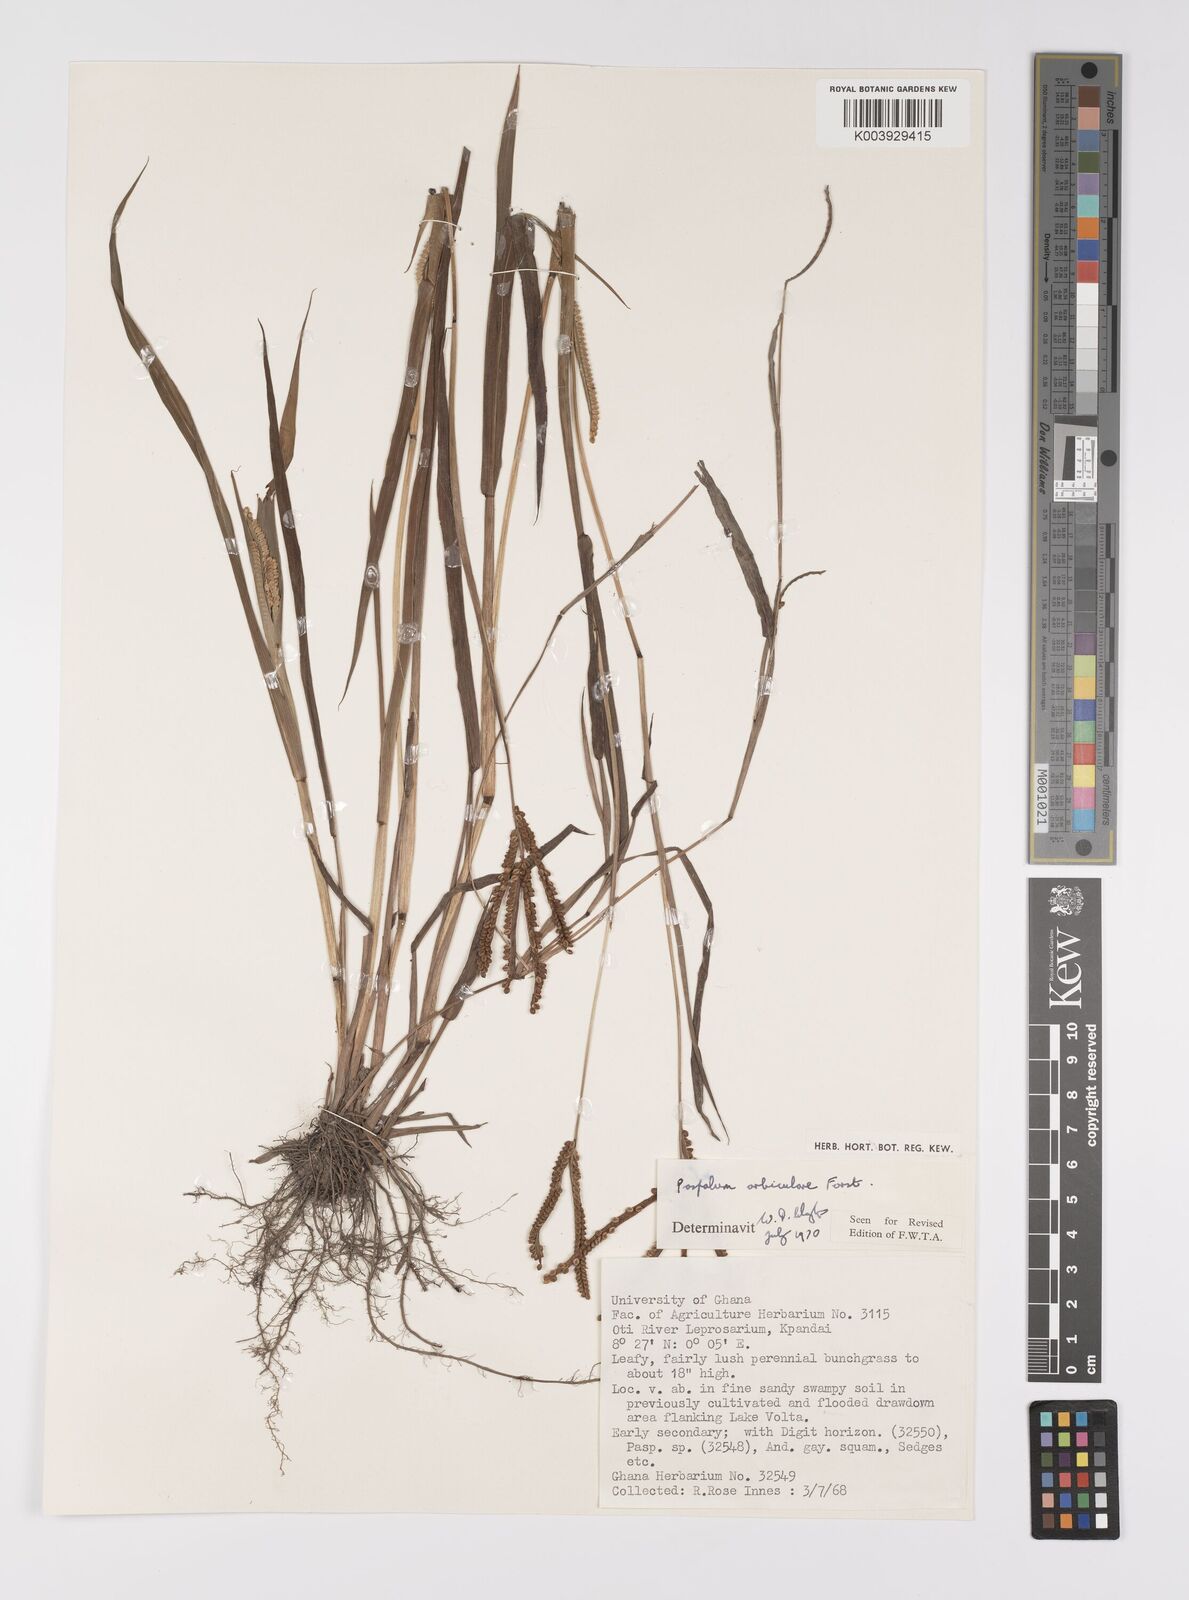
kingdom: Plantae
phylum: Tracheophyta
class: Liliopsida
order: Poales
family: Poaceae
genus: Paspalum
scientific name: Paspalum scrobiculatum
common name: Kodo millet
